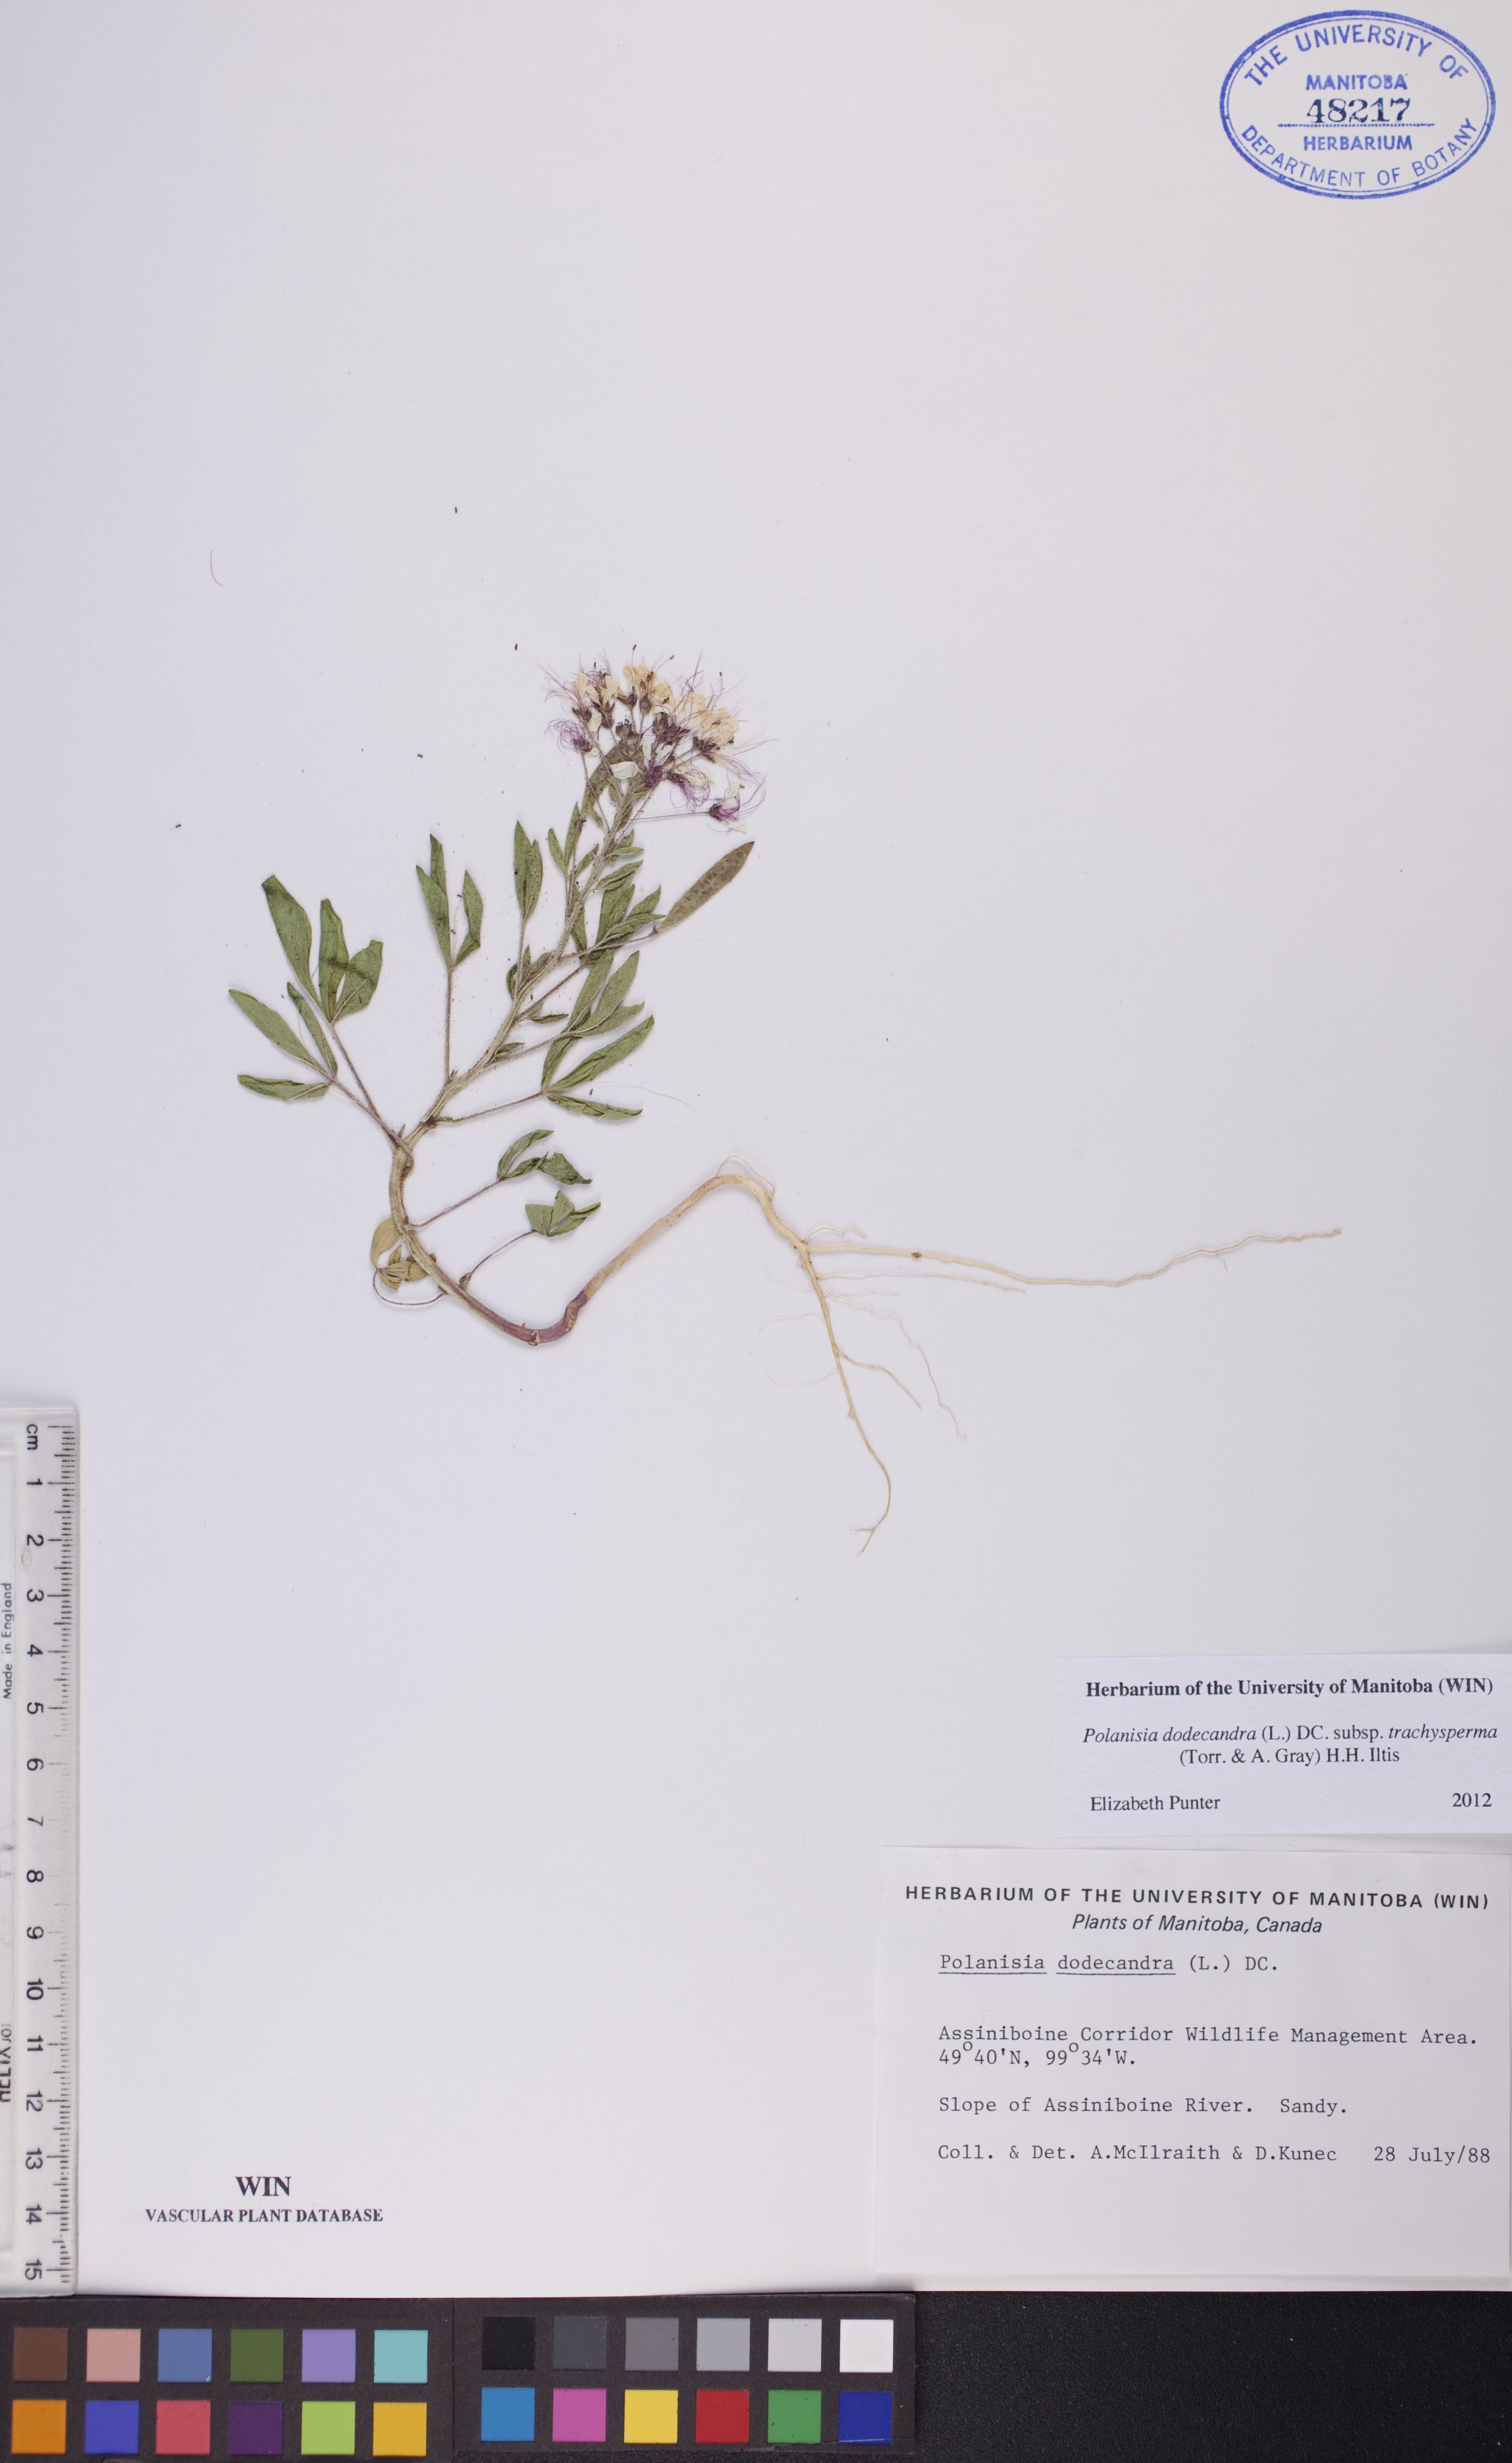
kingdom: Plantae
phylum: Tracheophyta
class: Magnoliopsida
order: Brassicales
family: Cleomaceae
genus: Polanisia
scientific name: Polanisia trachysperma
